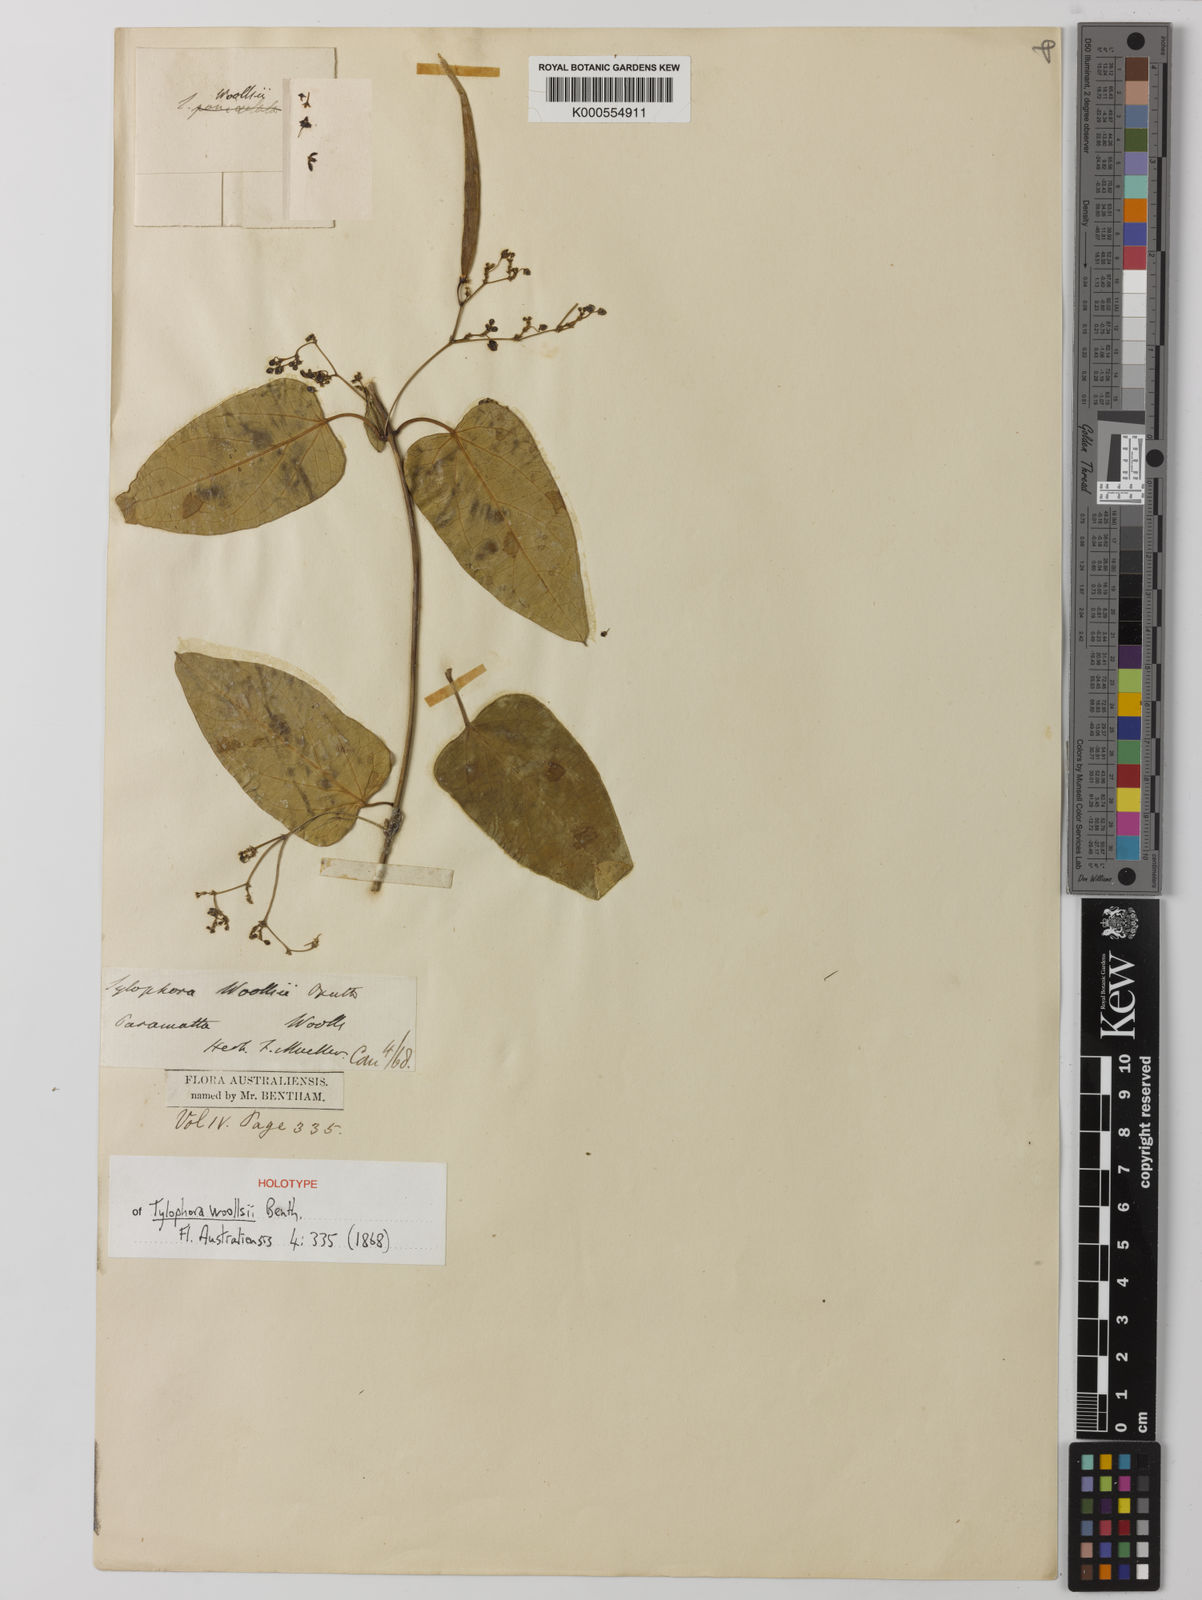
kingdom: Plantae
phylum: Tracheophyta
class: Magnoliopsida
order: Gentianales
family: Apocynaceae
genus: Vincetoxicum
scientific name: Vincetoxicum woollsii
